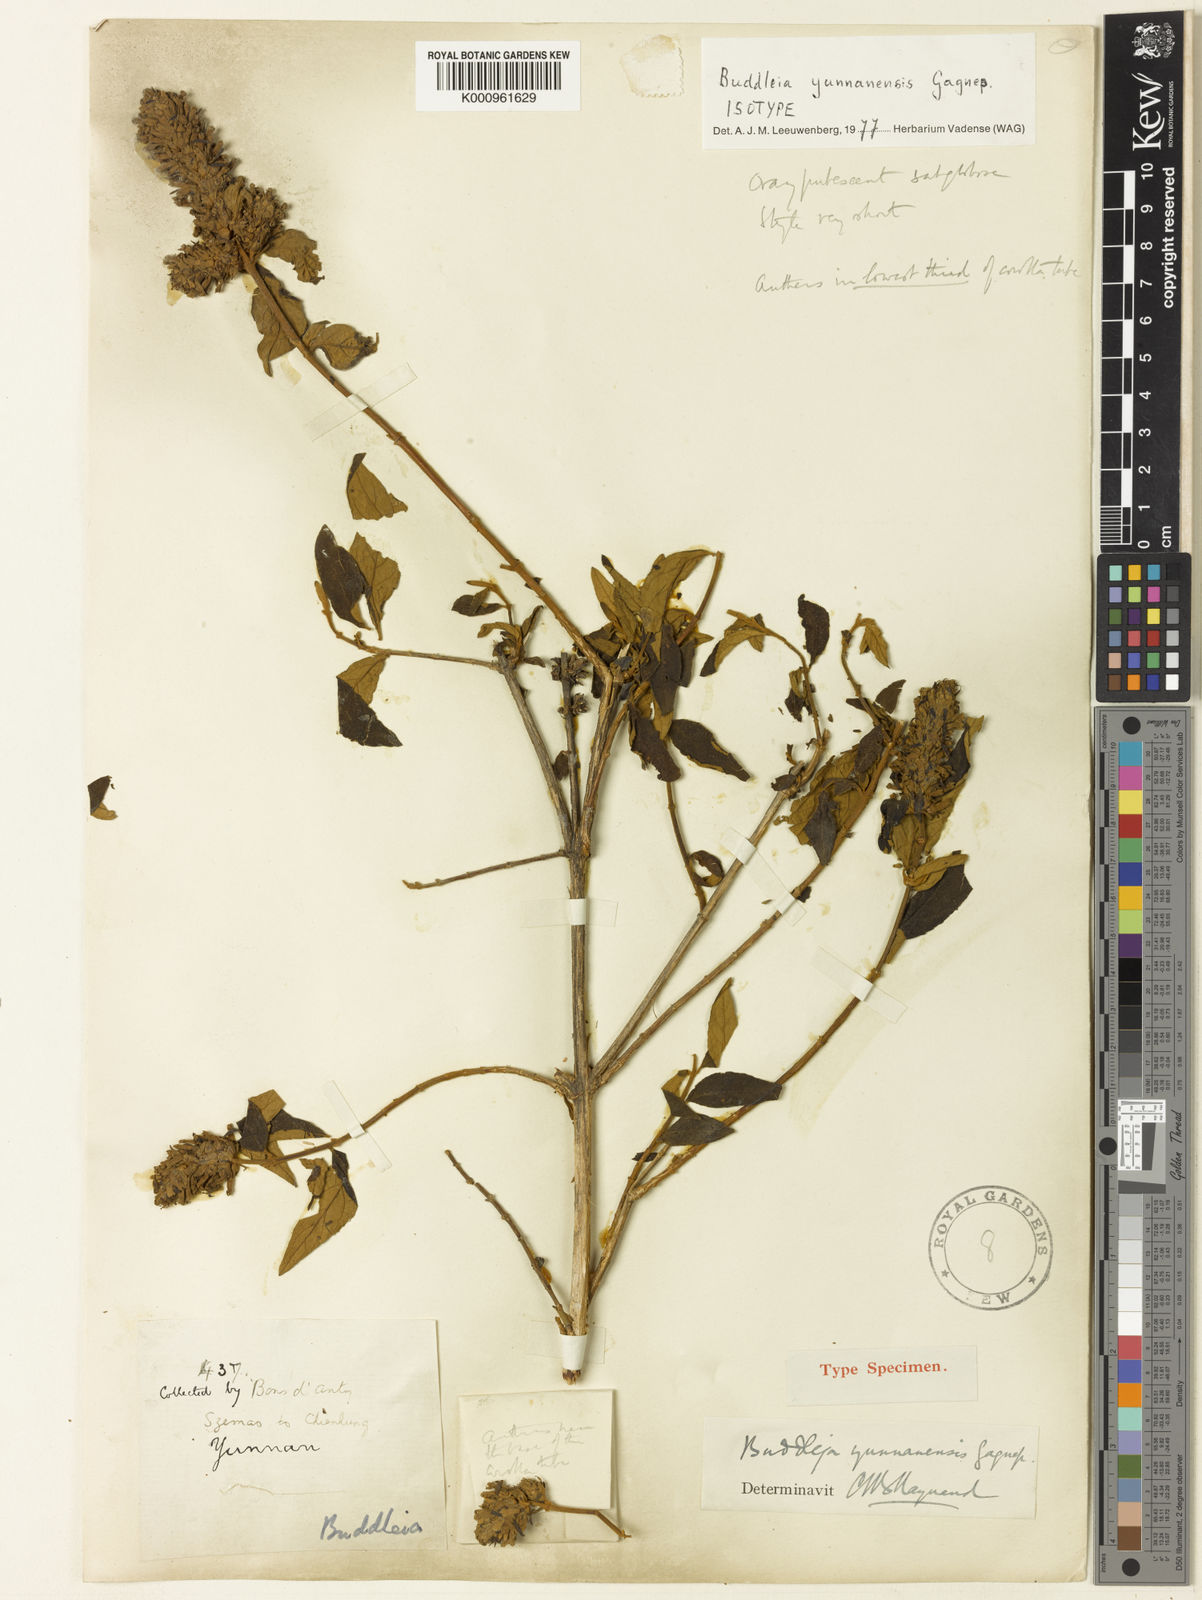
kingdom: Plantae
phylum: Tracheophyta
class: Magnoliopsida
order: Lamiales
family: Scrophulariaceae
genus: Buddleja
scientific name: Buddleja yunnanensis
